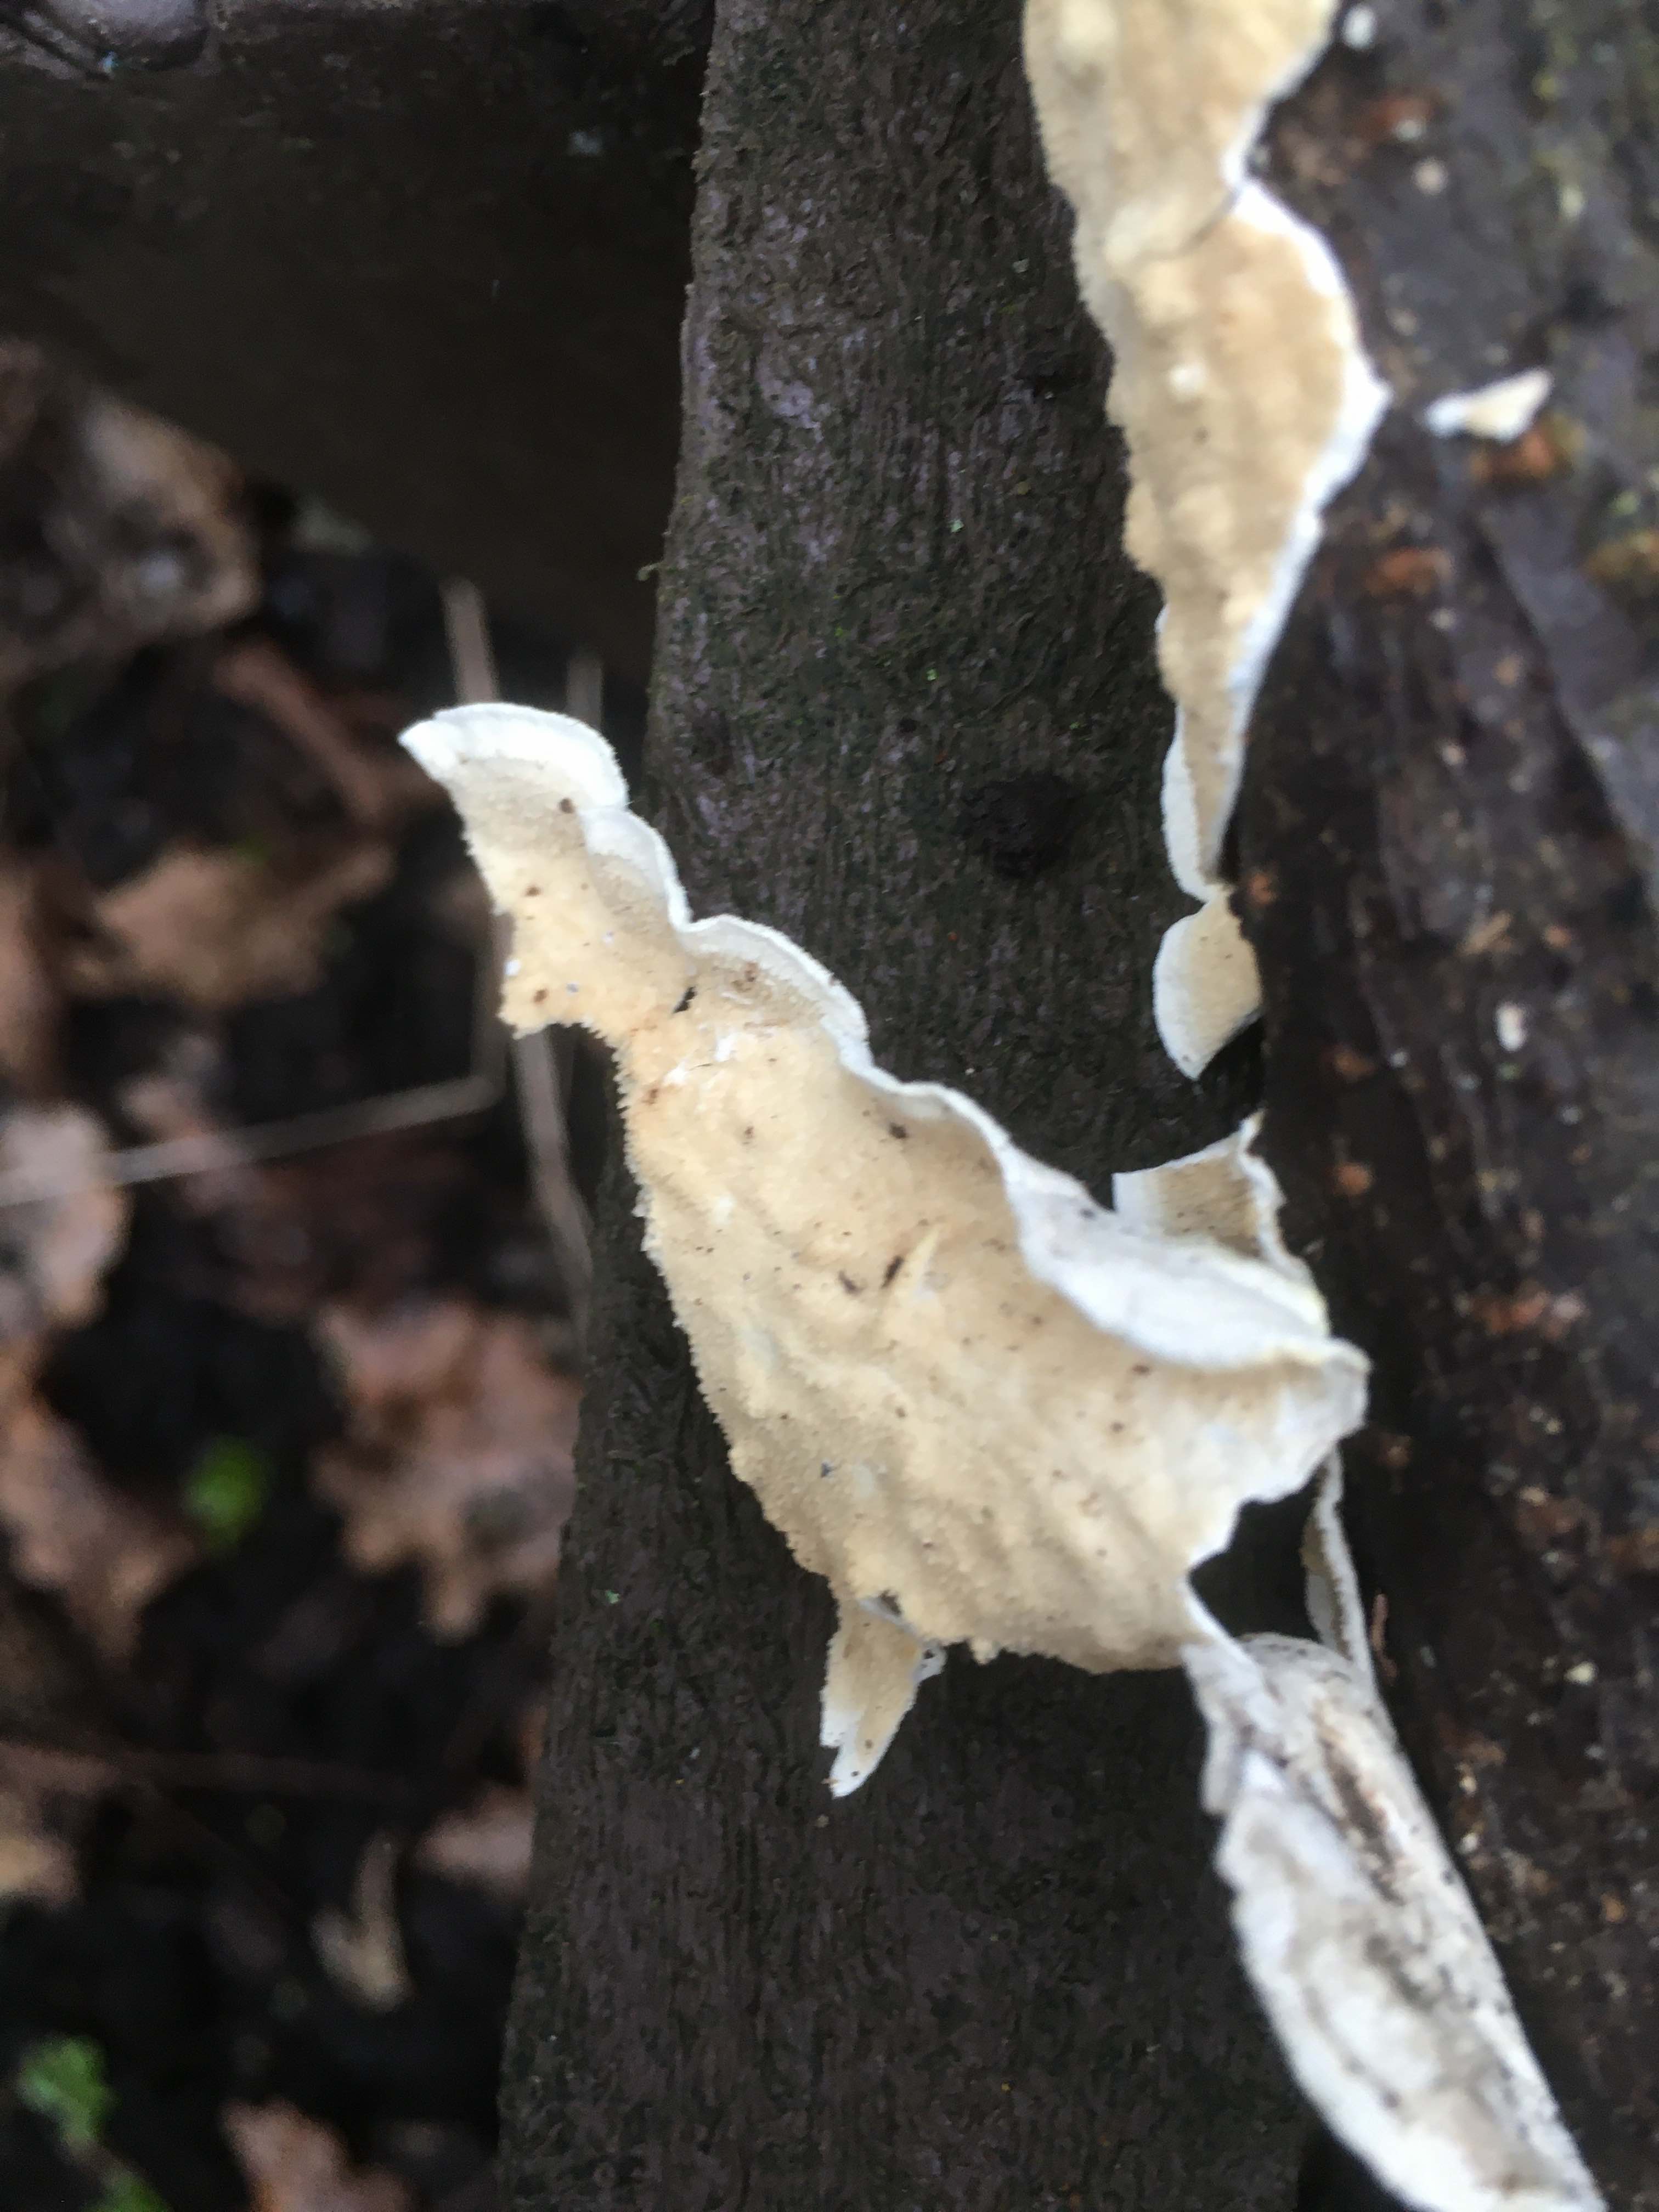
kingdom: Fungi
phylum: Basidiomycota
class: Agaricomycetes
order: Polyporales
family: Irpicaceae
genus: Byssomerulius
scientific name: Byssomerulius corium
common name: læder-åresvamp
